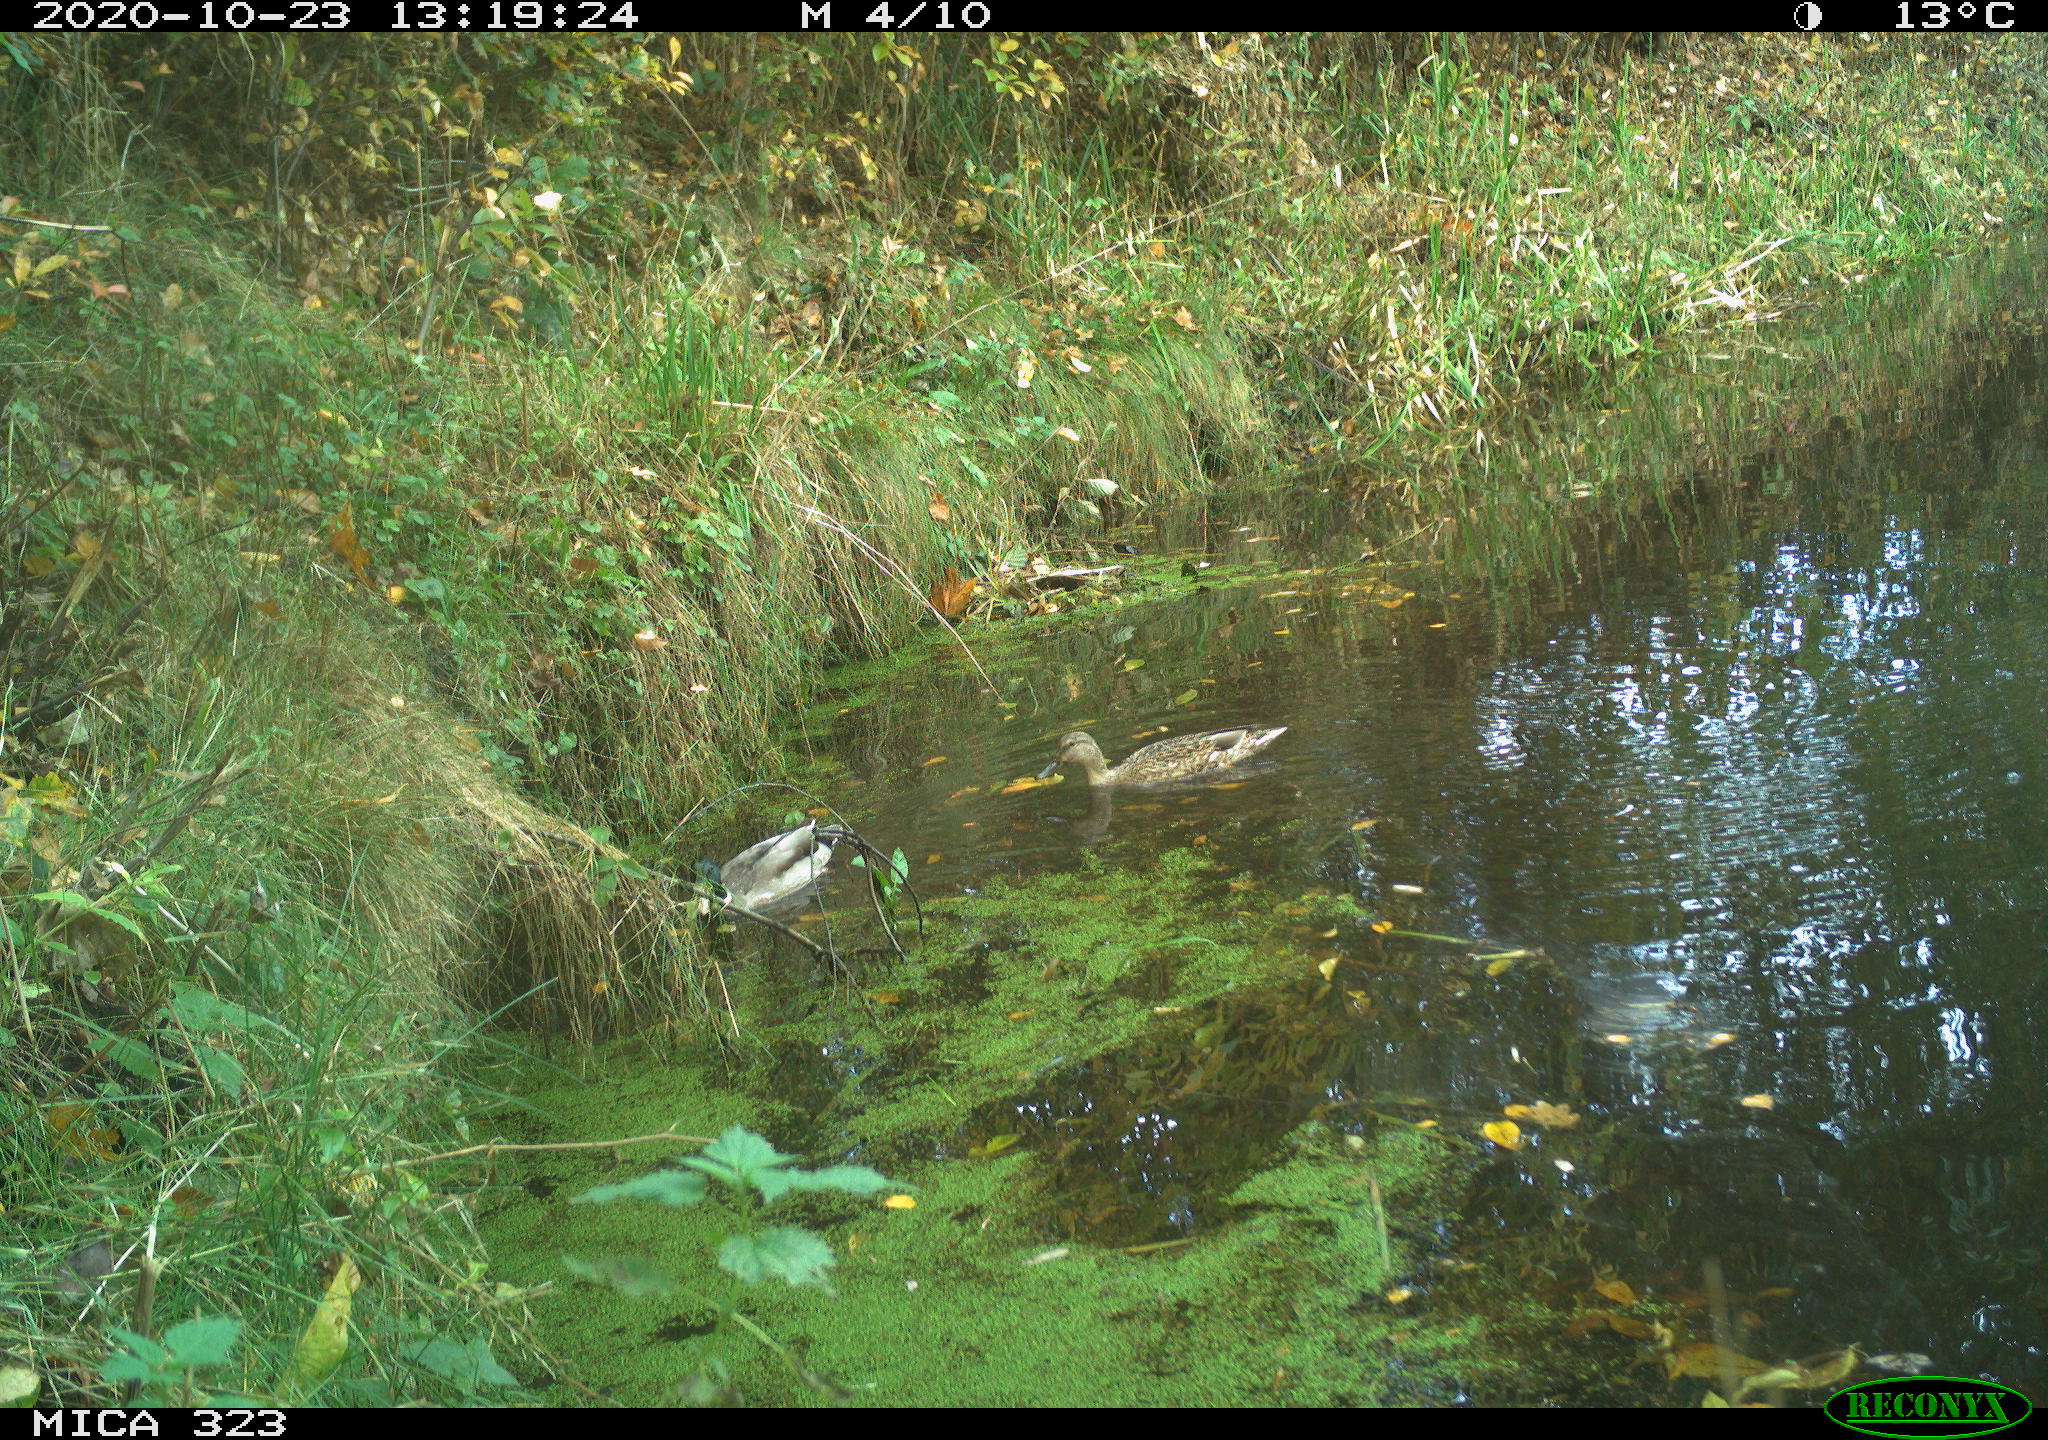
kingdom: Animalia
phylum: Chordata
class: Aves
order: Anseriformes
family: Anatidae
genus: Anas
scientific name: Anas platyrhynchos
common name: Mallard
